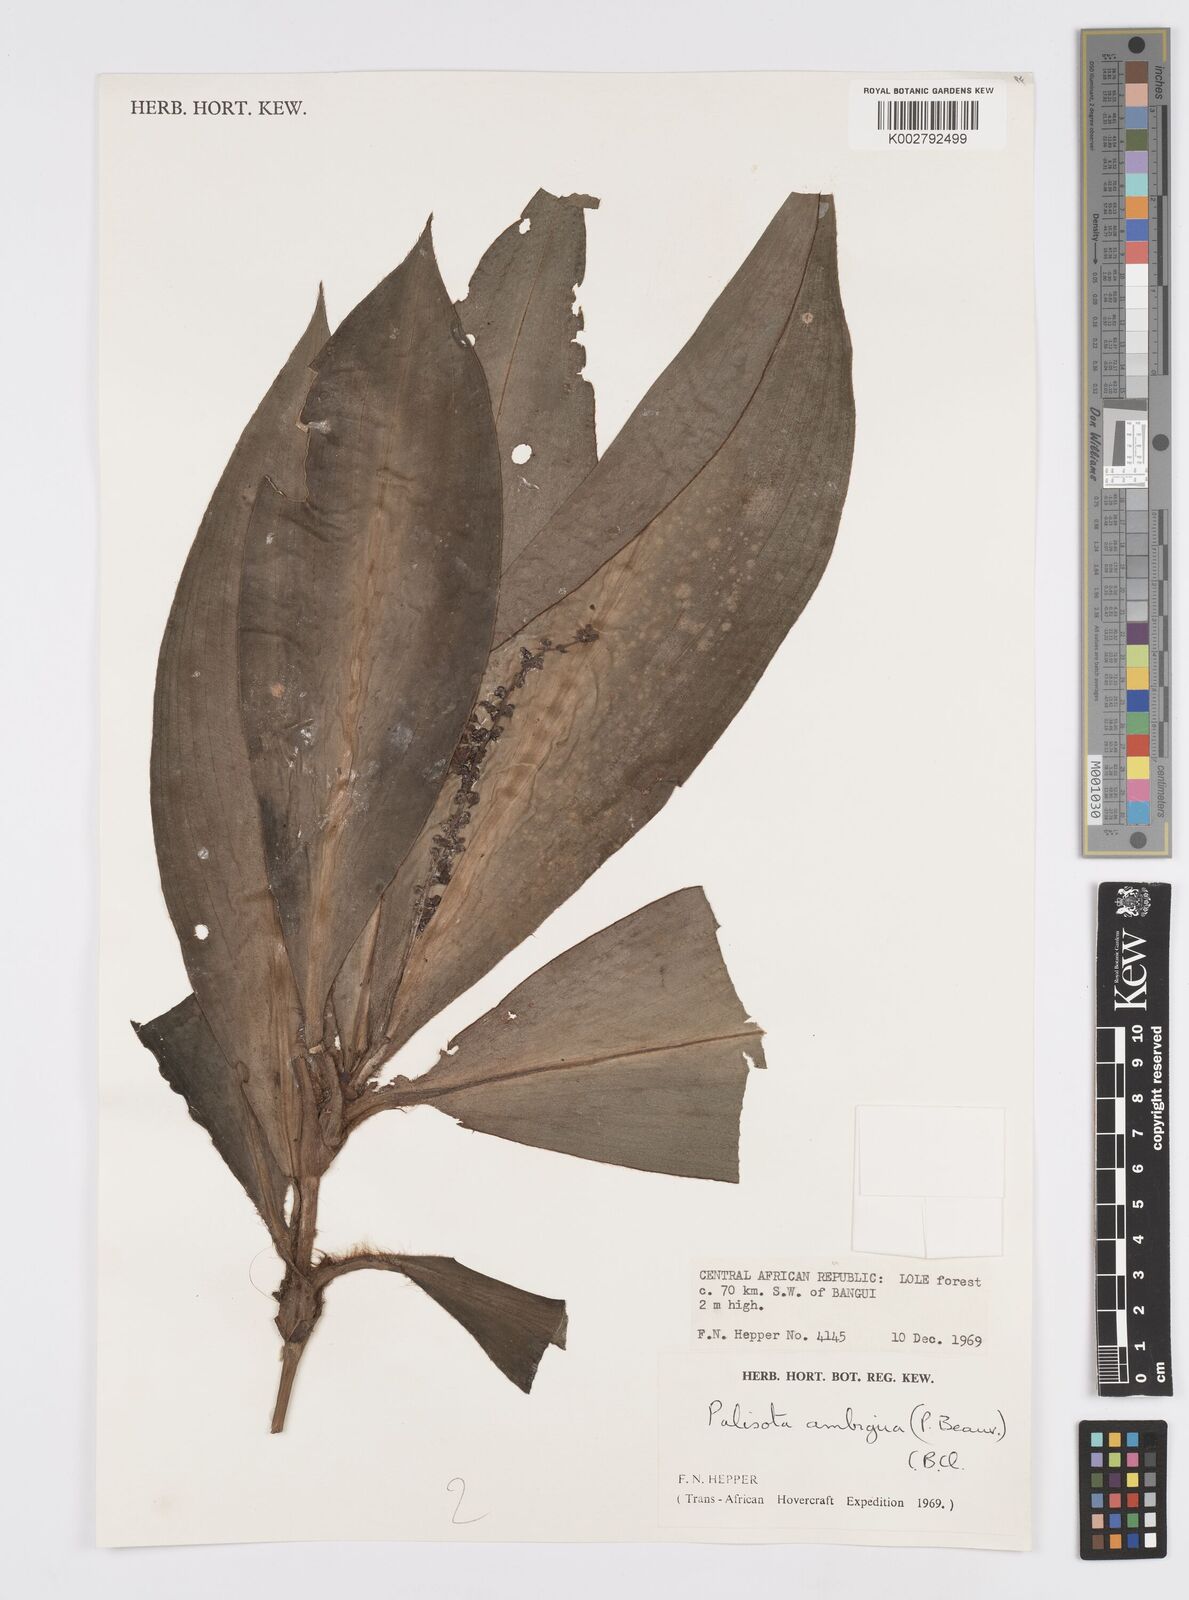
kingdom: Plantae
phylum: Tracheophyta
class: Liliopsida
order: Commelinales
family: Commelinaceae
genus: Palisota
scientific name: Palisota ambigua
